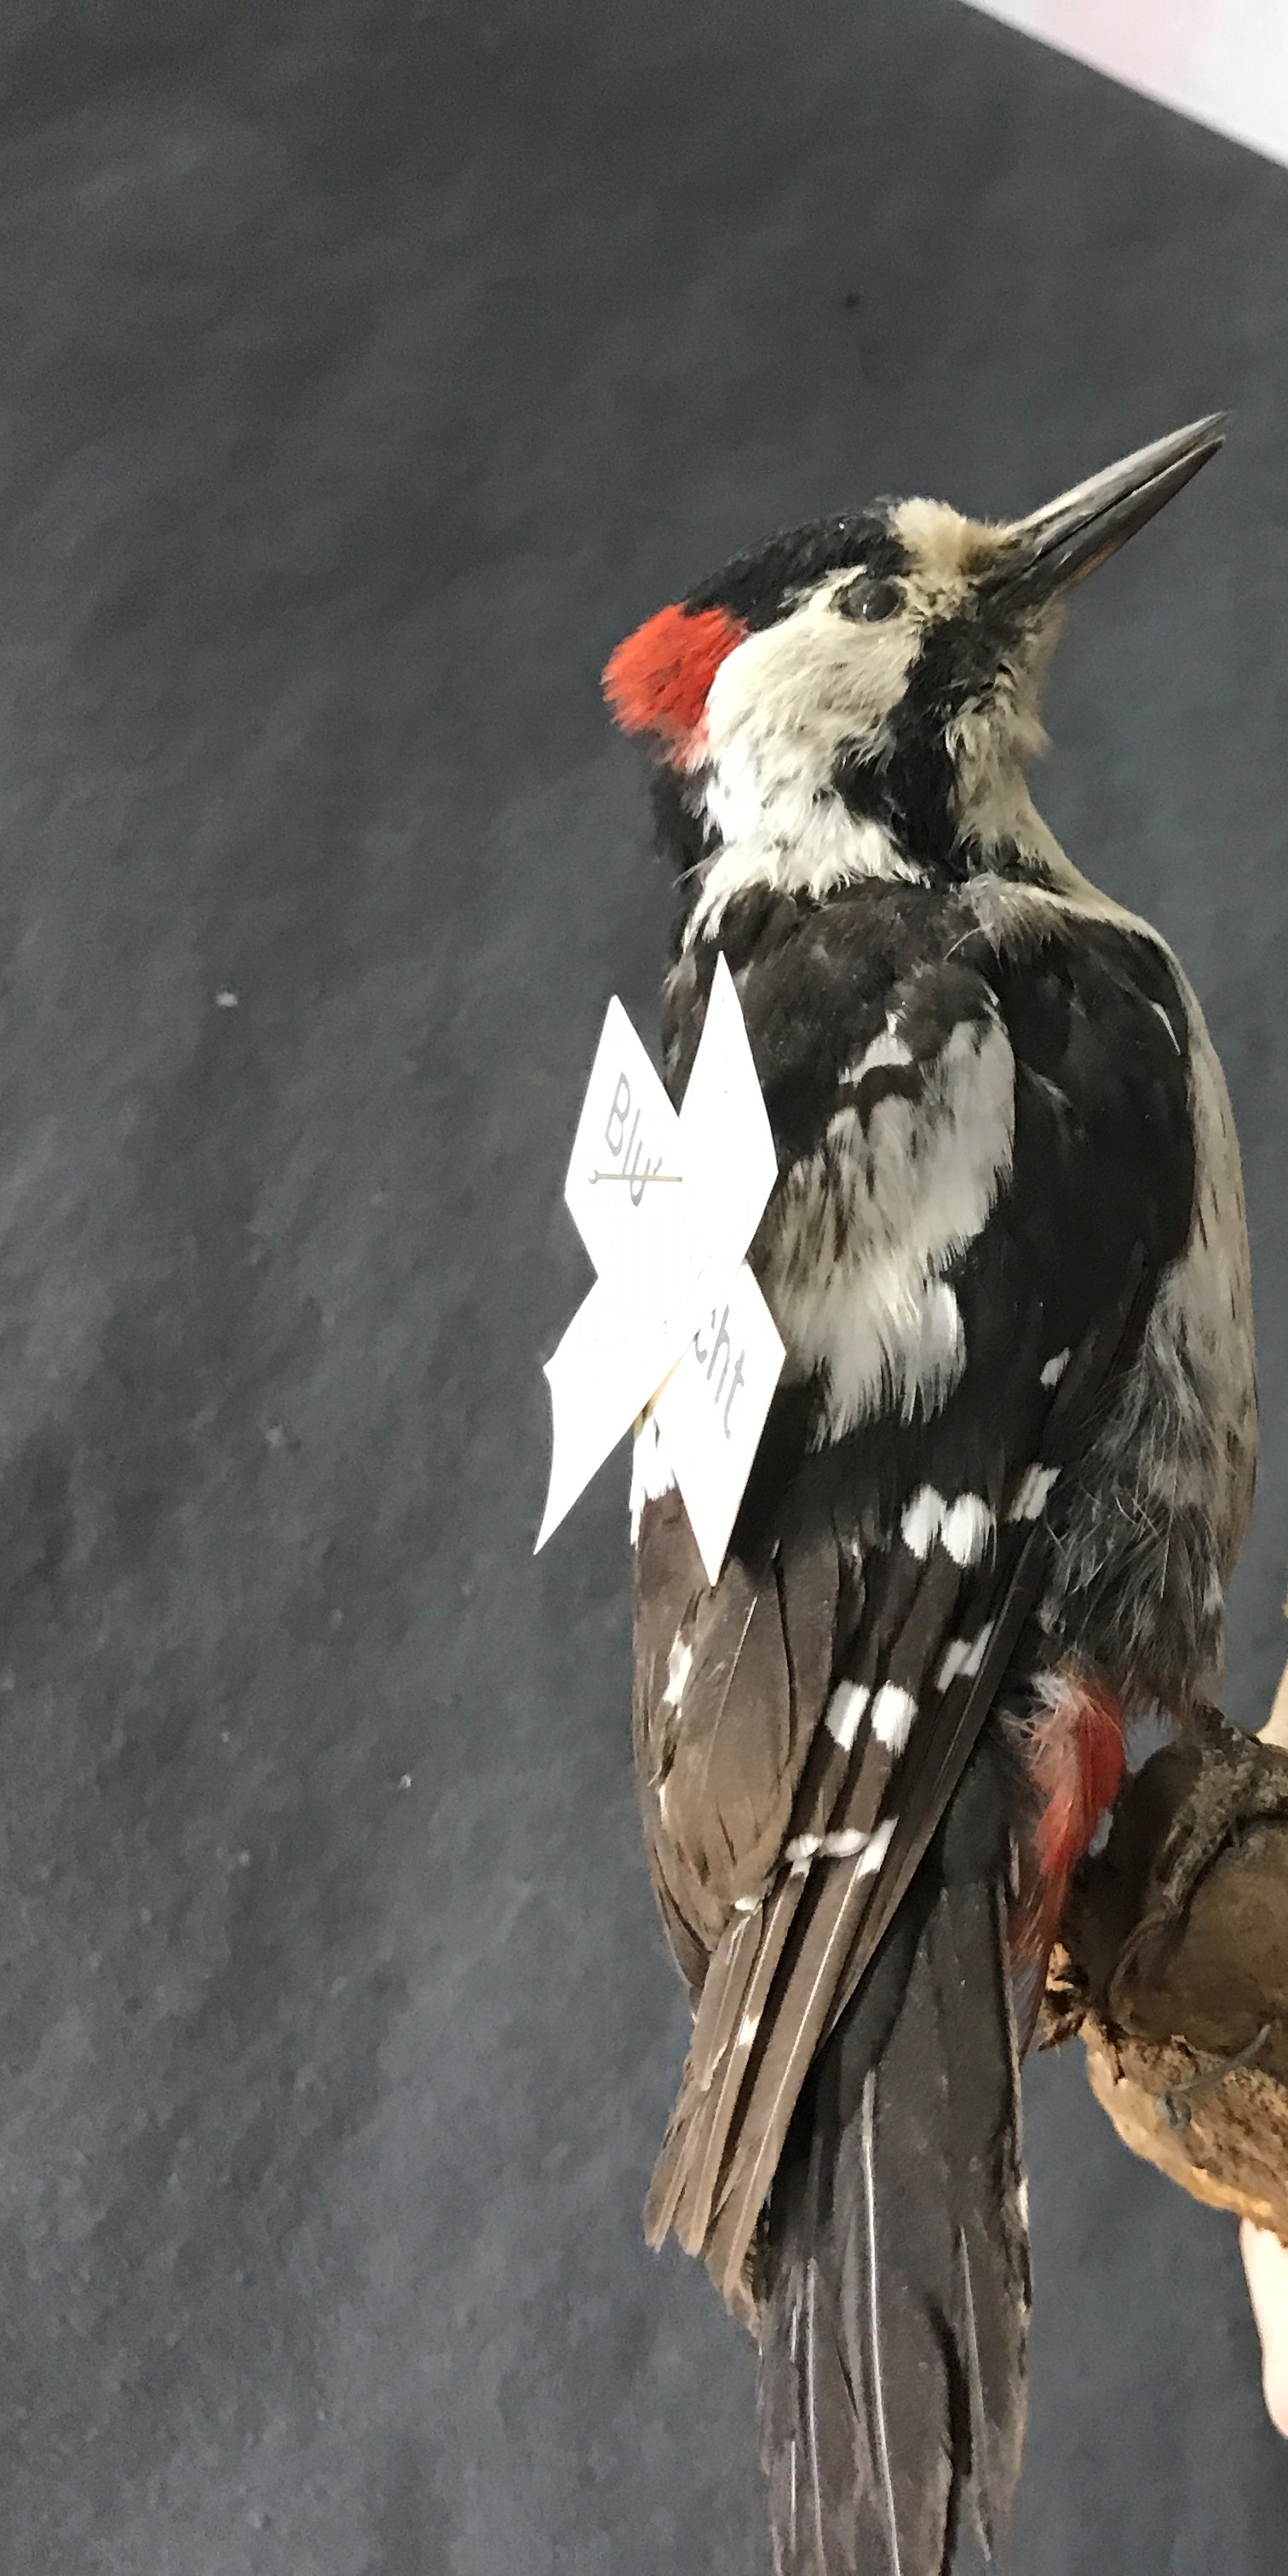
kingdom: Animalia
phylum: Chordata
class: Aves
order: Piciformes
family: Picidae
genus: Dendrocopos
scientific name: Dendrocopos syriacus
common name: Syrian woodpecker
